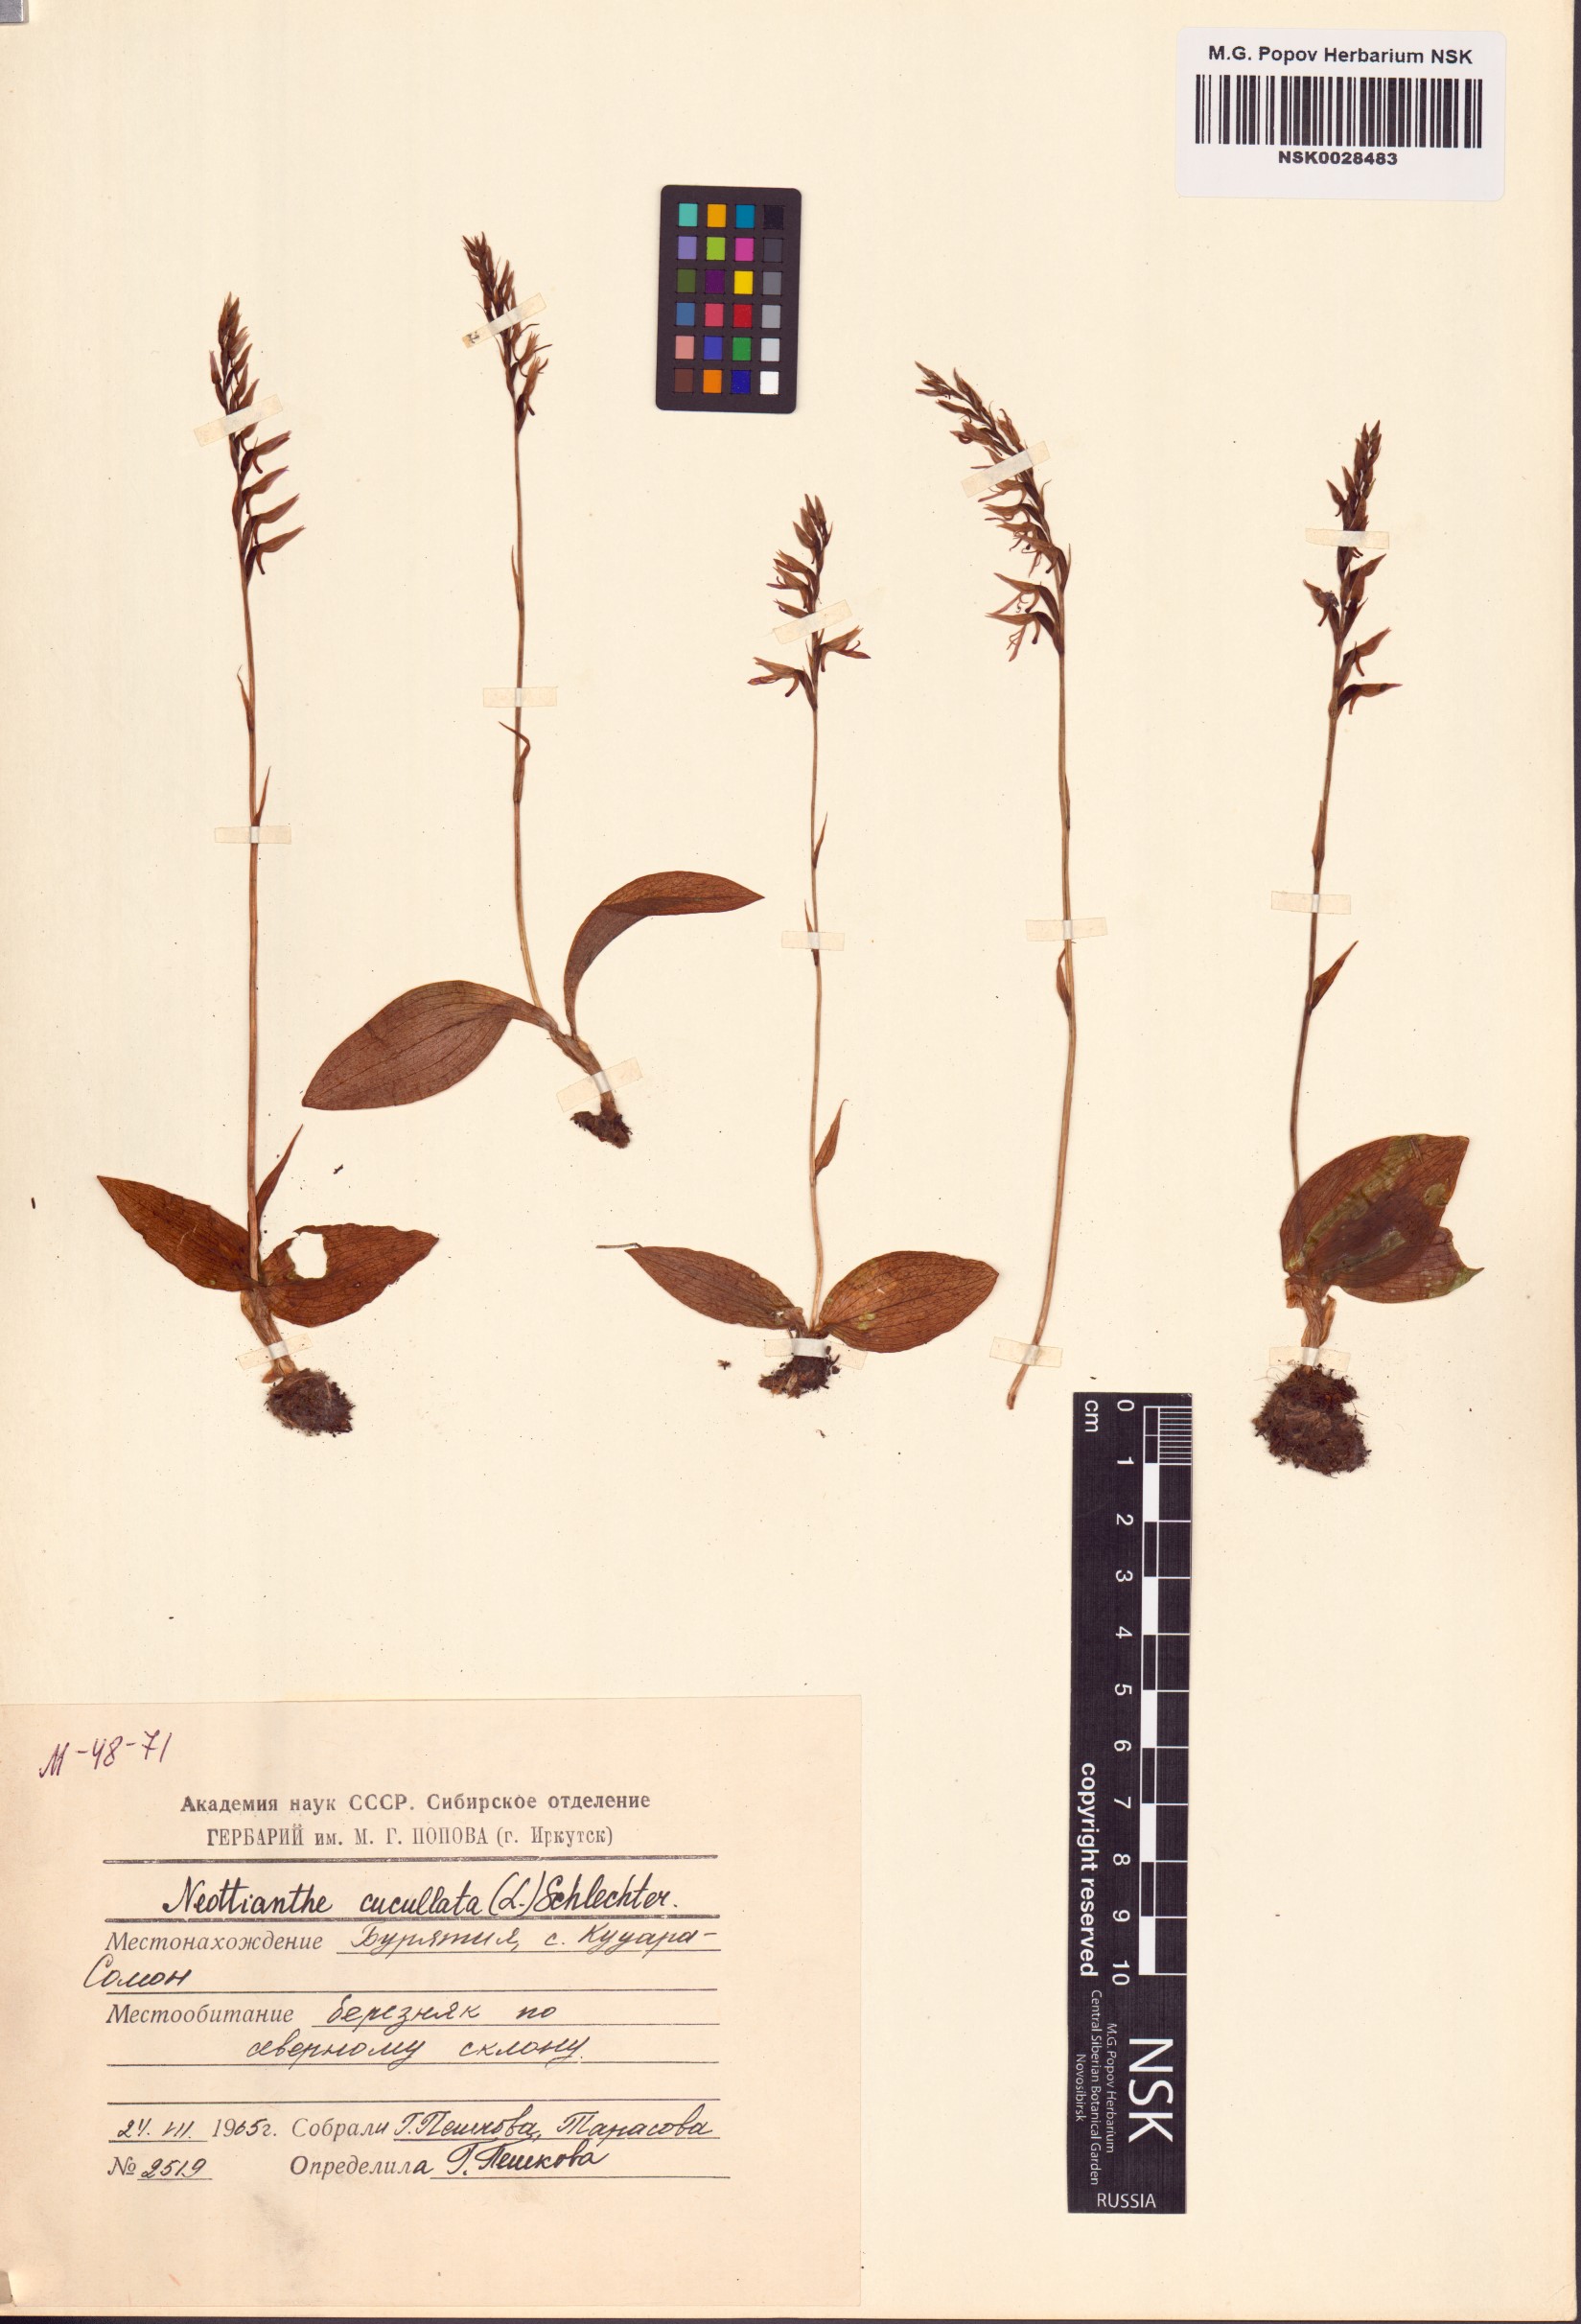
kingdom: Plantae
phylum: Tracheophyta
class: Liliopsida
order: Asparagales
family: Orchidaceae
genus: Hemipilia
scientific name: Hemipilia cucullata
